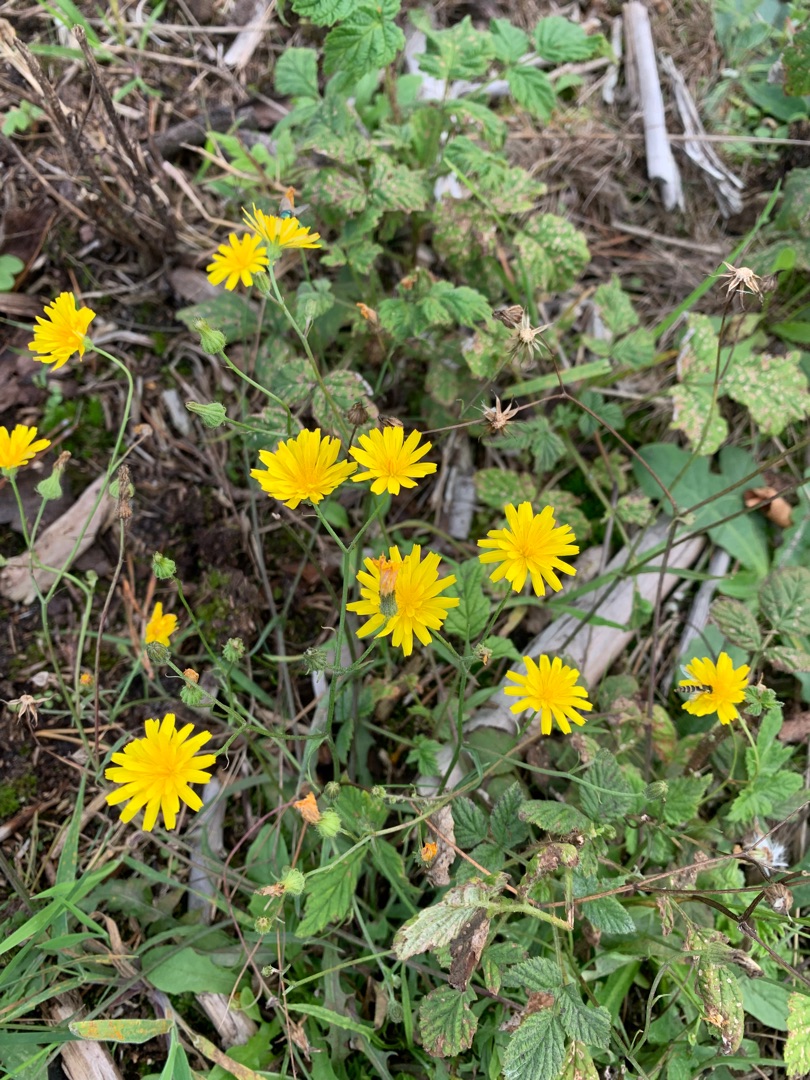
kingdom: Plantae
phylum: Tracheophyta
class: Magnoliopsida
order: Asterales
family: Asteraceae
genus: Crepis
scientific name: Crepis capillaris
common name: Grøn høgeskæg
